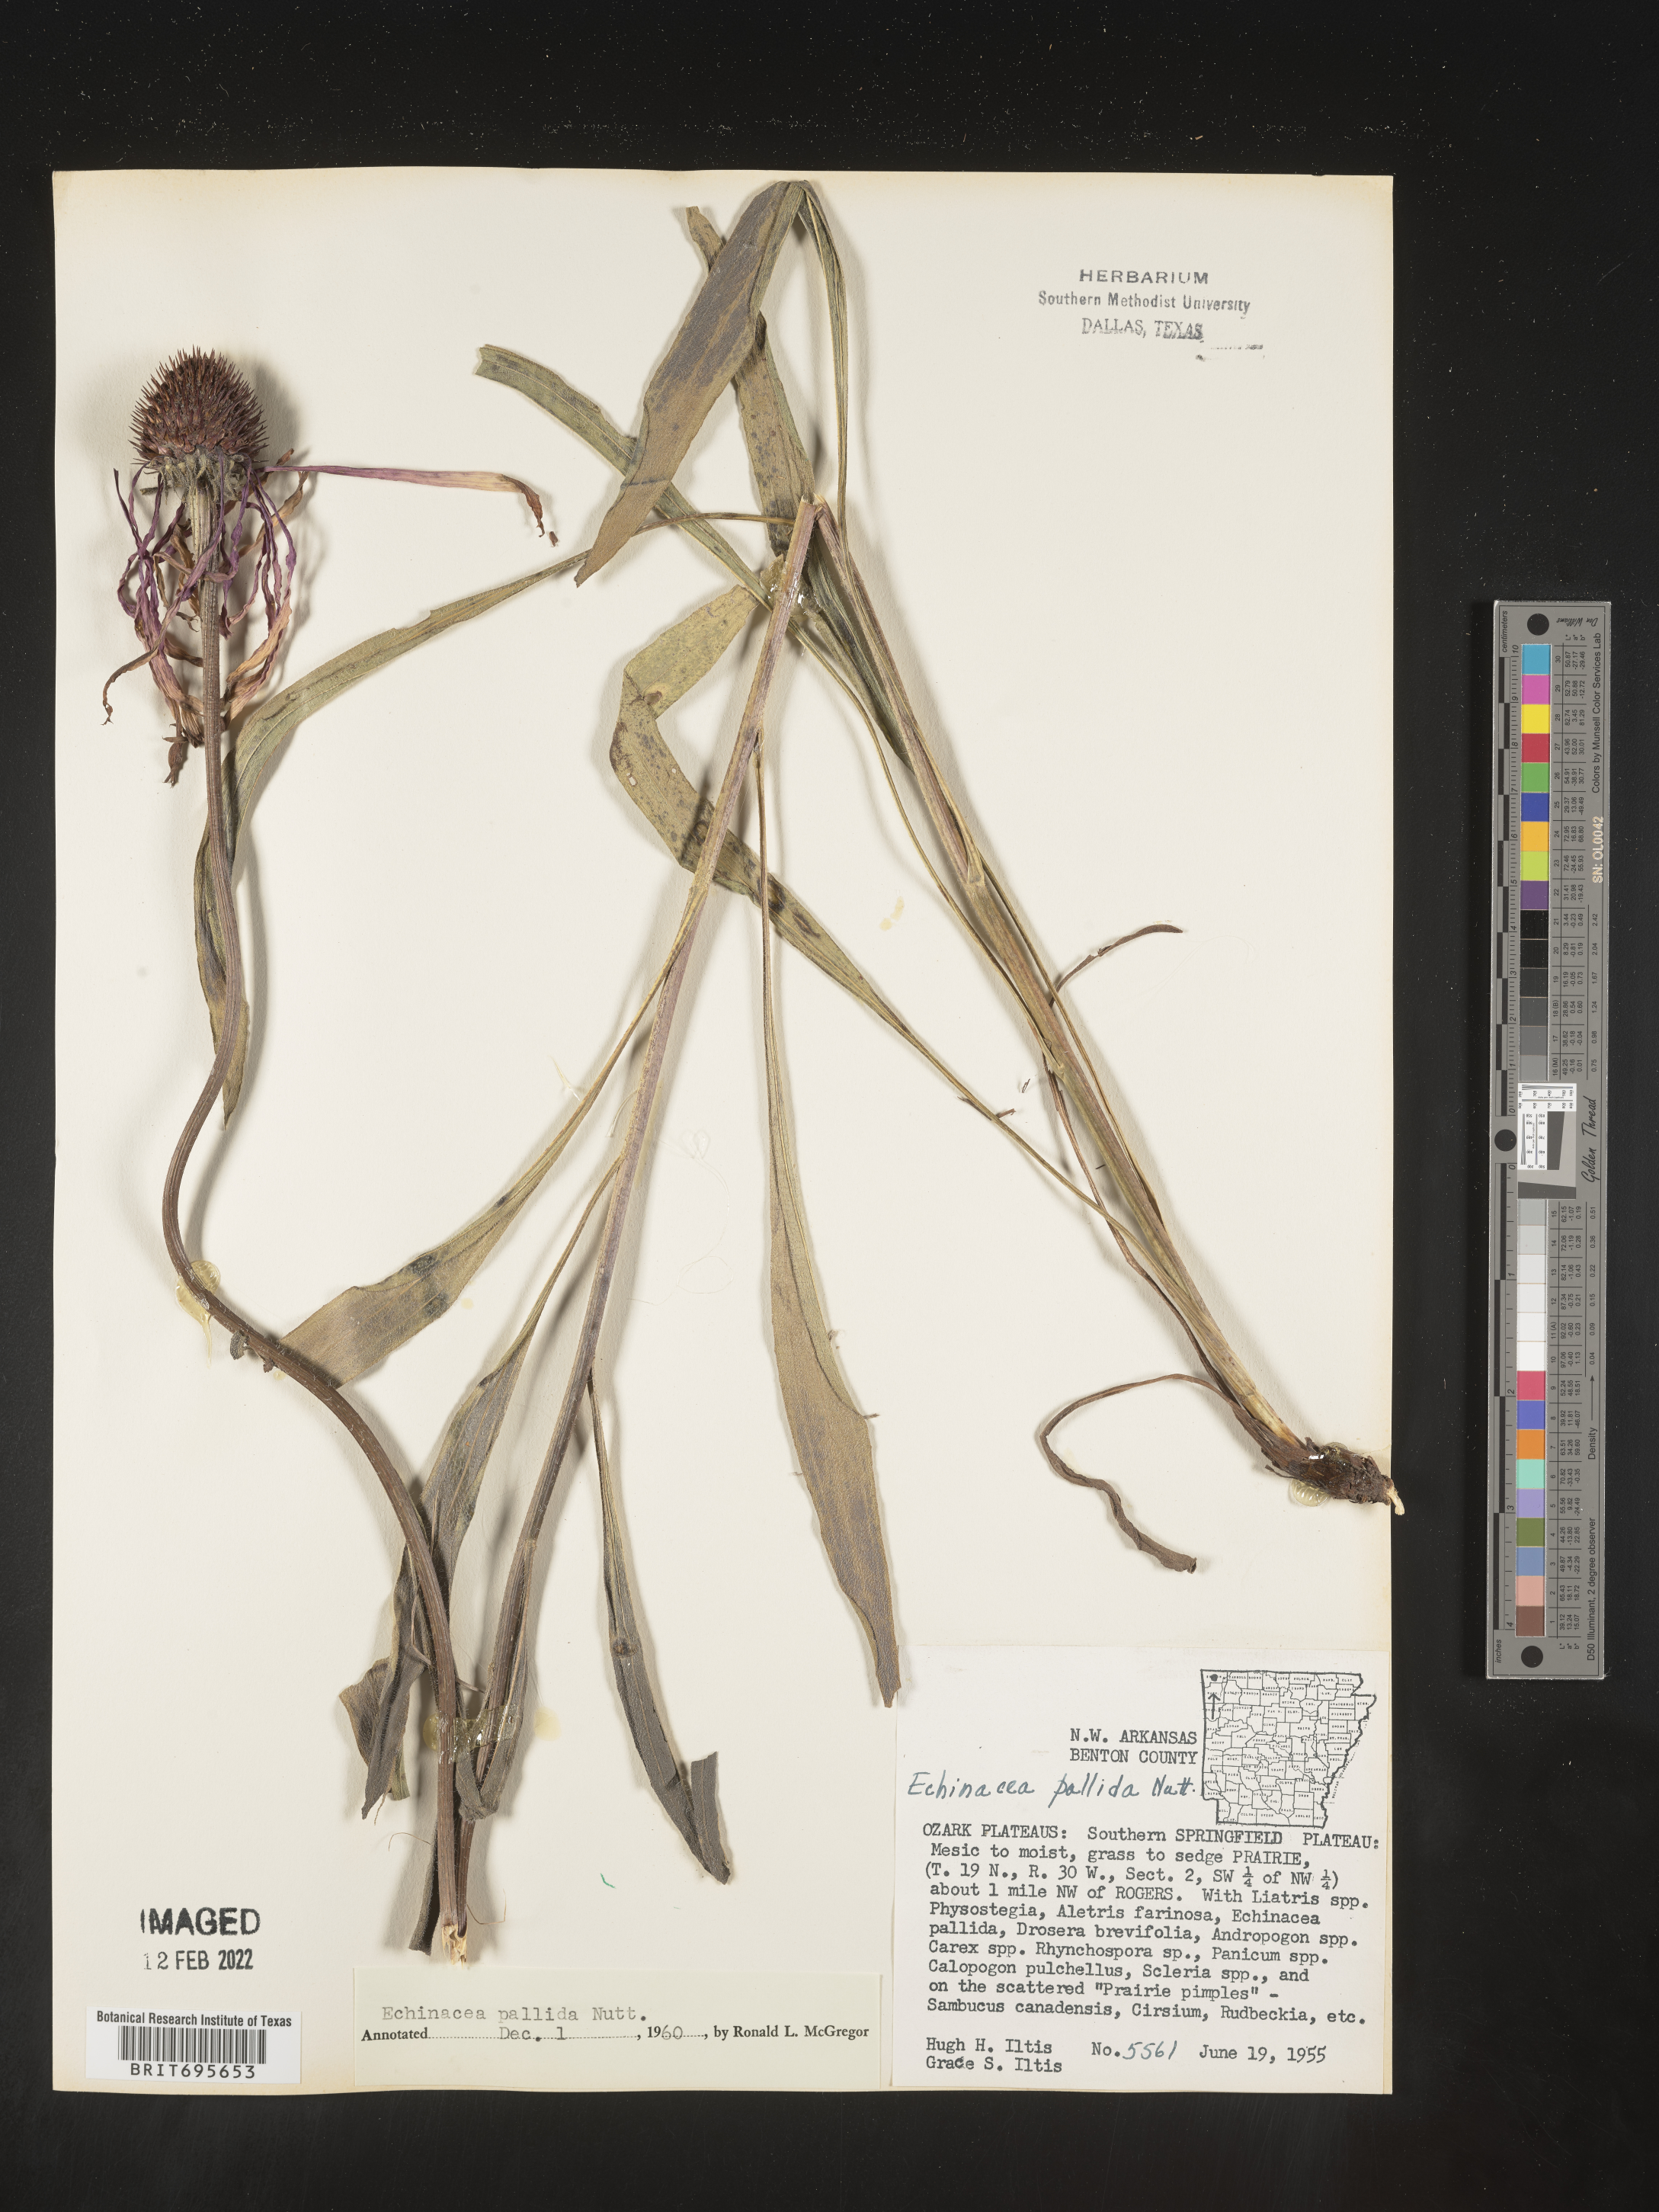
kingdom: Plantae
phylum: Tracheophyta
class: Magnoliopsida
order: Asterales
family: Asteraceae
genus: Echinacea
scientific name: Echinacea pallida
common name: Pale echinacea
